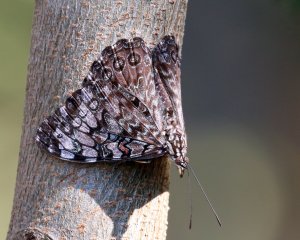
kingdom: Animalia
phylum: Arthropoda
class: Insecta
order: Lepidoptera
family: Nymphalidae
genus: Hamadryas
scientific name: Hamadryas guatemalena
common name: Guatemalan Cracker
